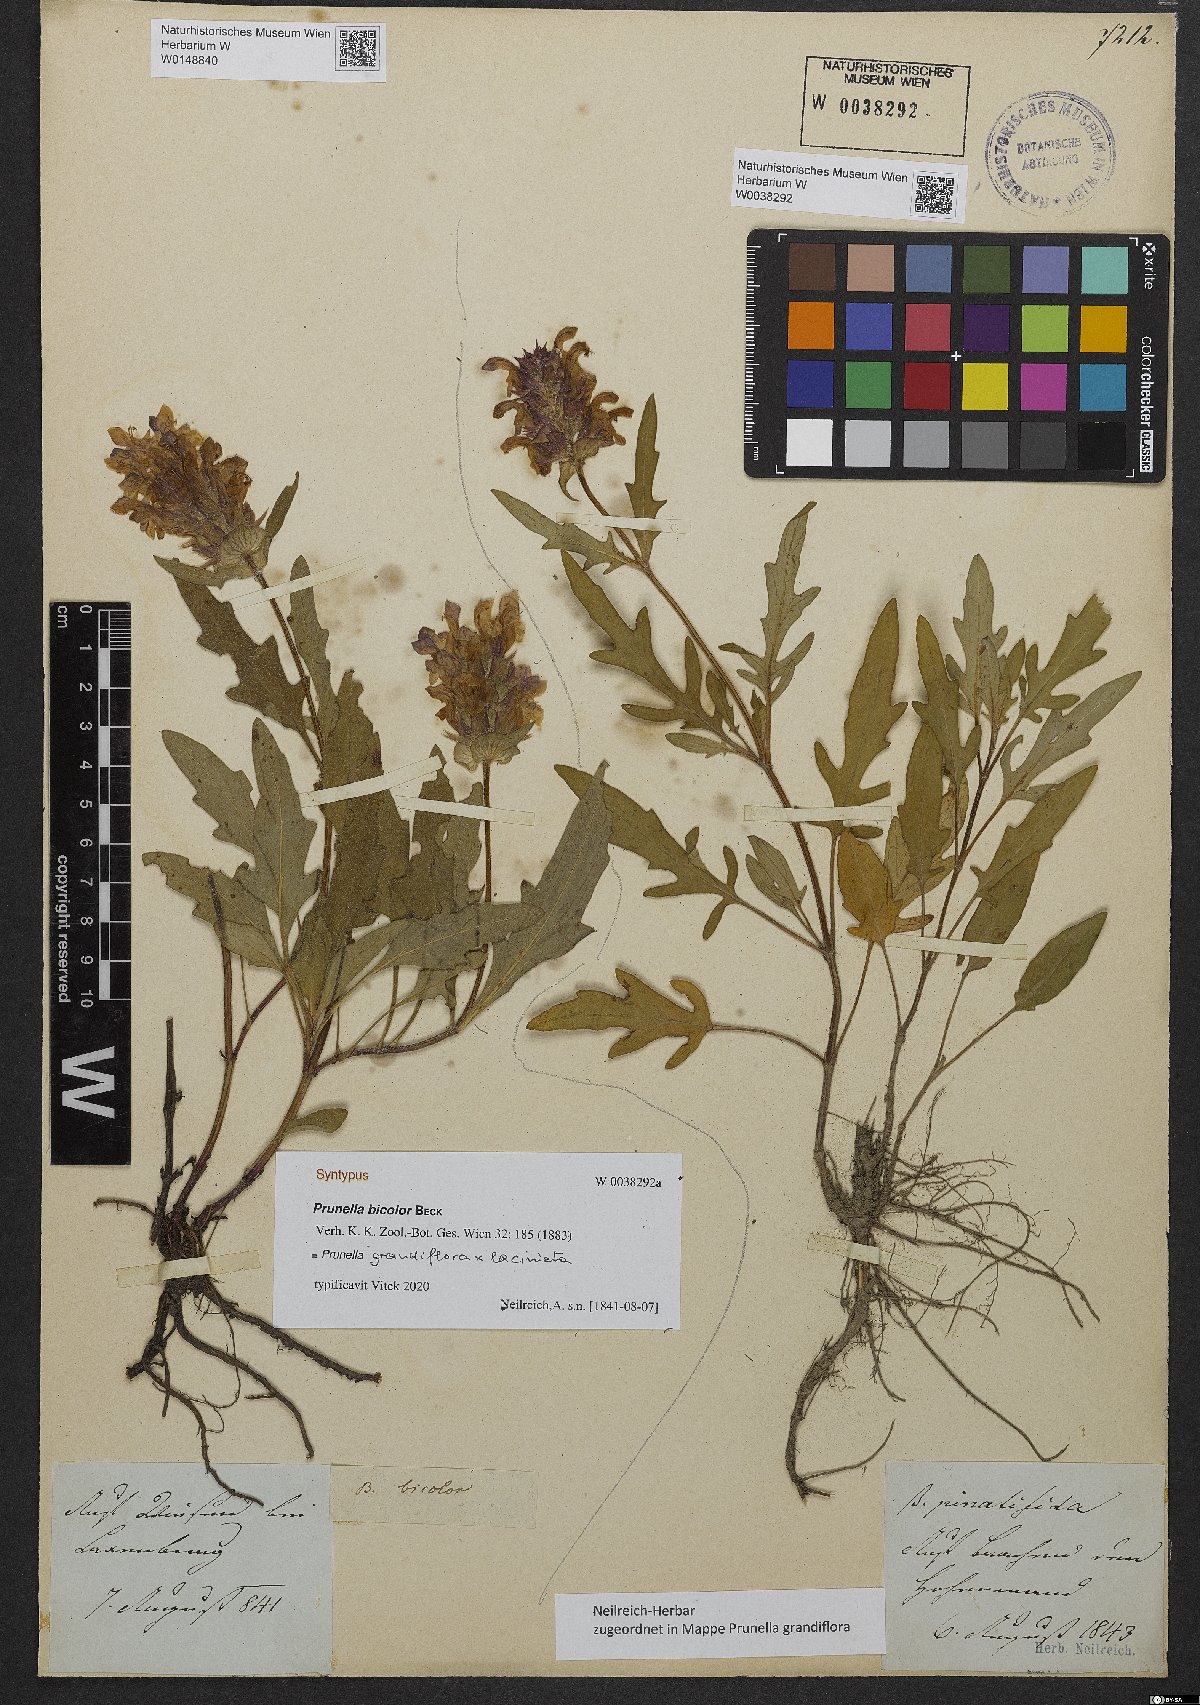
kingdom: Plantae
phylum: Tracheophyta
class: Magnoliopsida
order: Lamiales
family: Lamiaceae
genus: Prunella
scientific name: Prunella grandiflora
